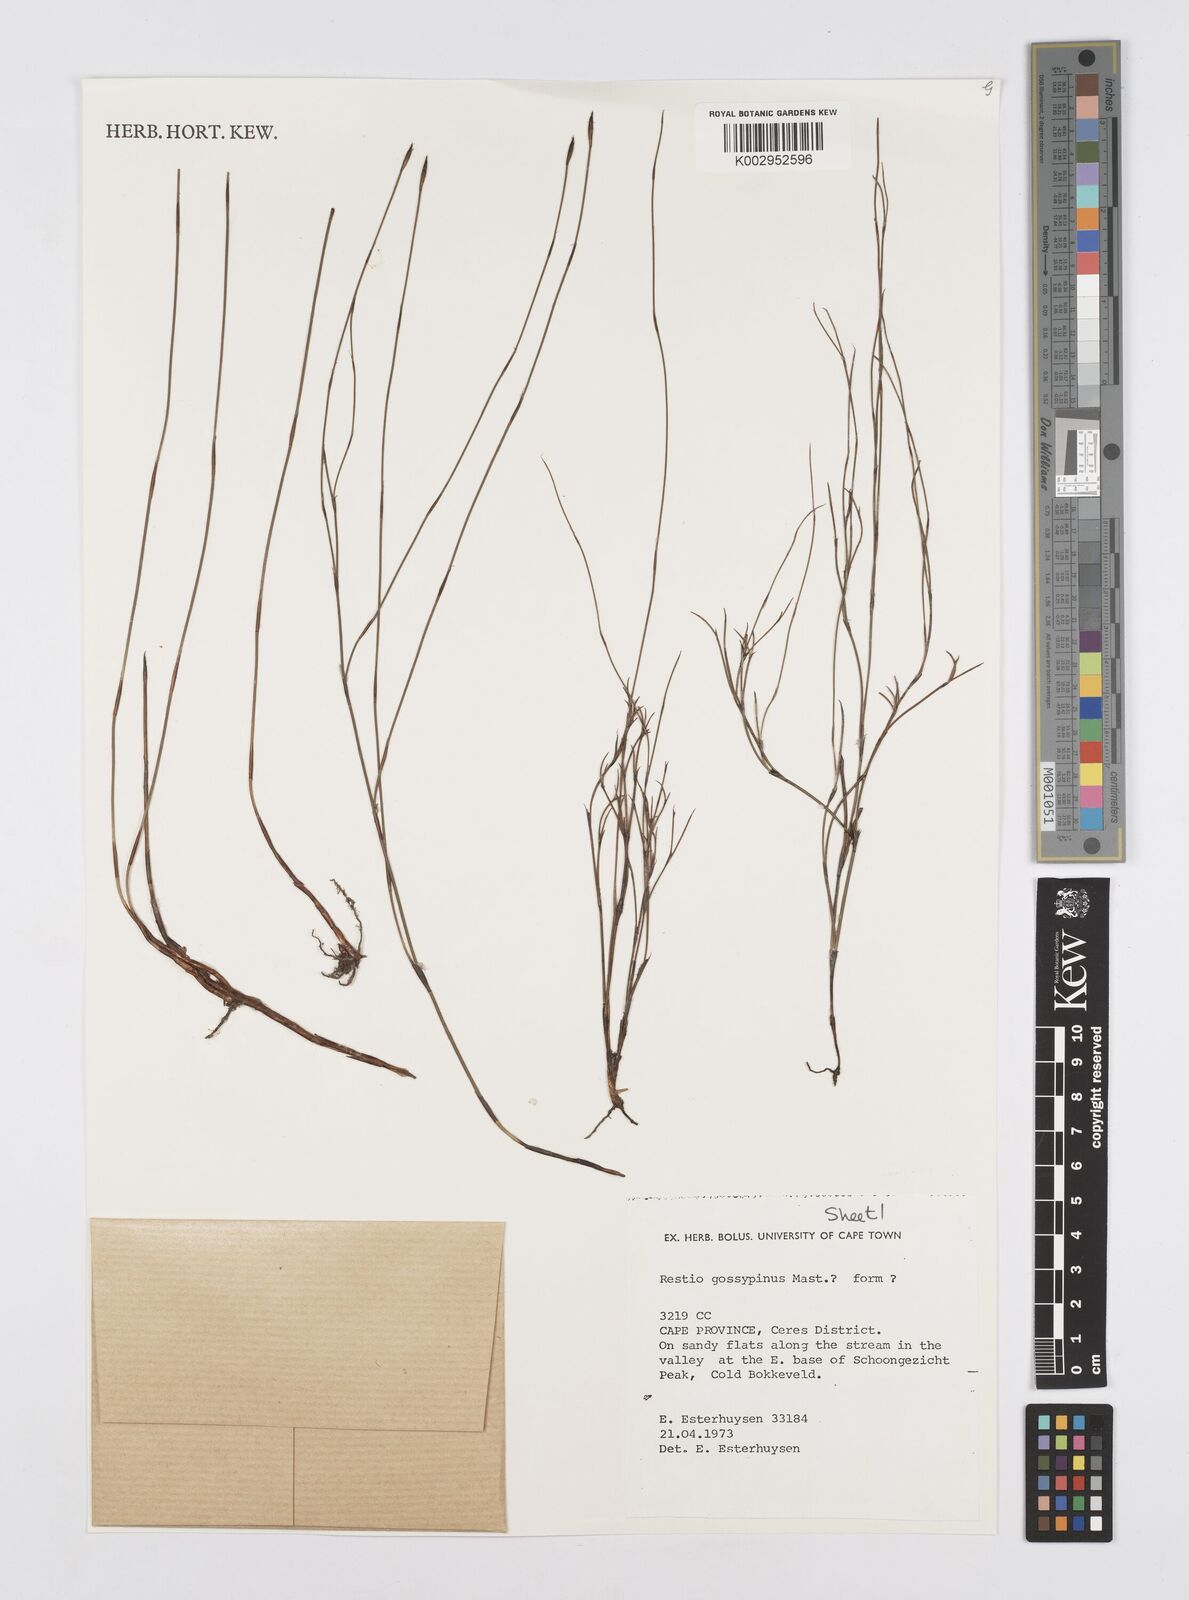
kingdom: Plantae
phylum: Tracheophyta
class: Liliopsida
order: Poales
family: Restionaceae
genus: Restio
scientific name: Restio gossypinus
